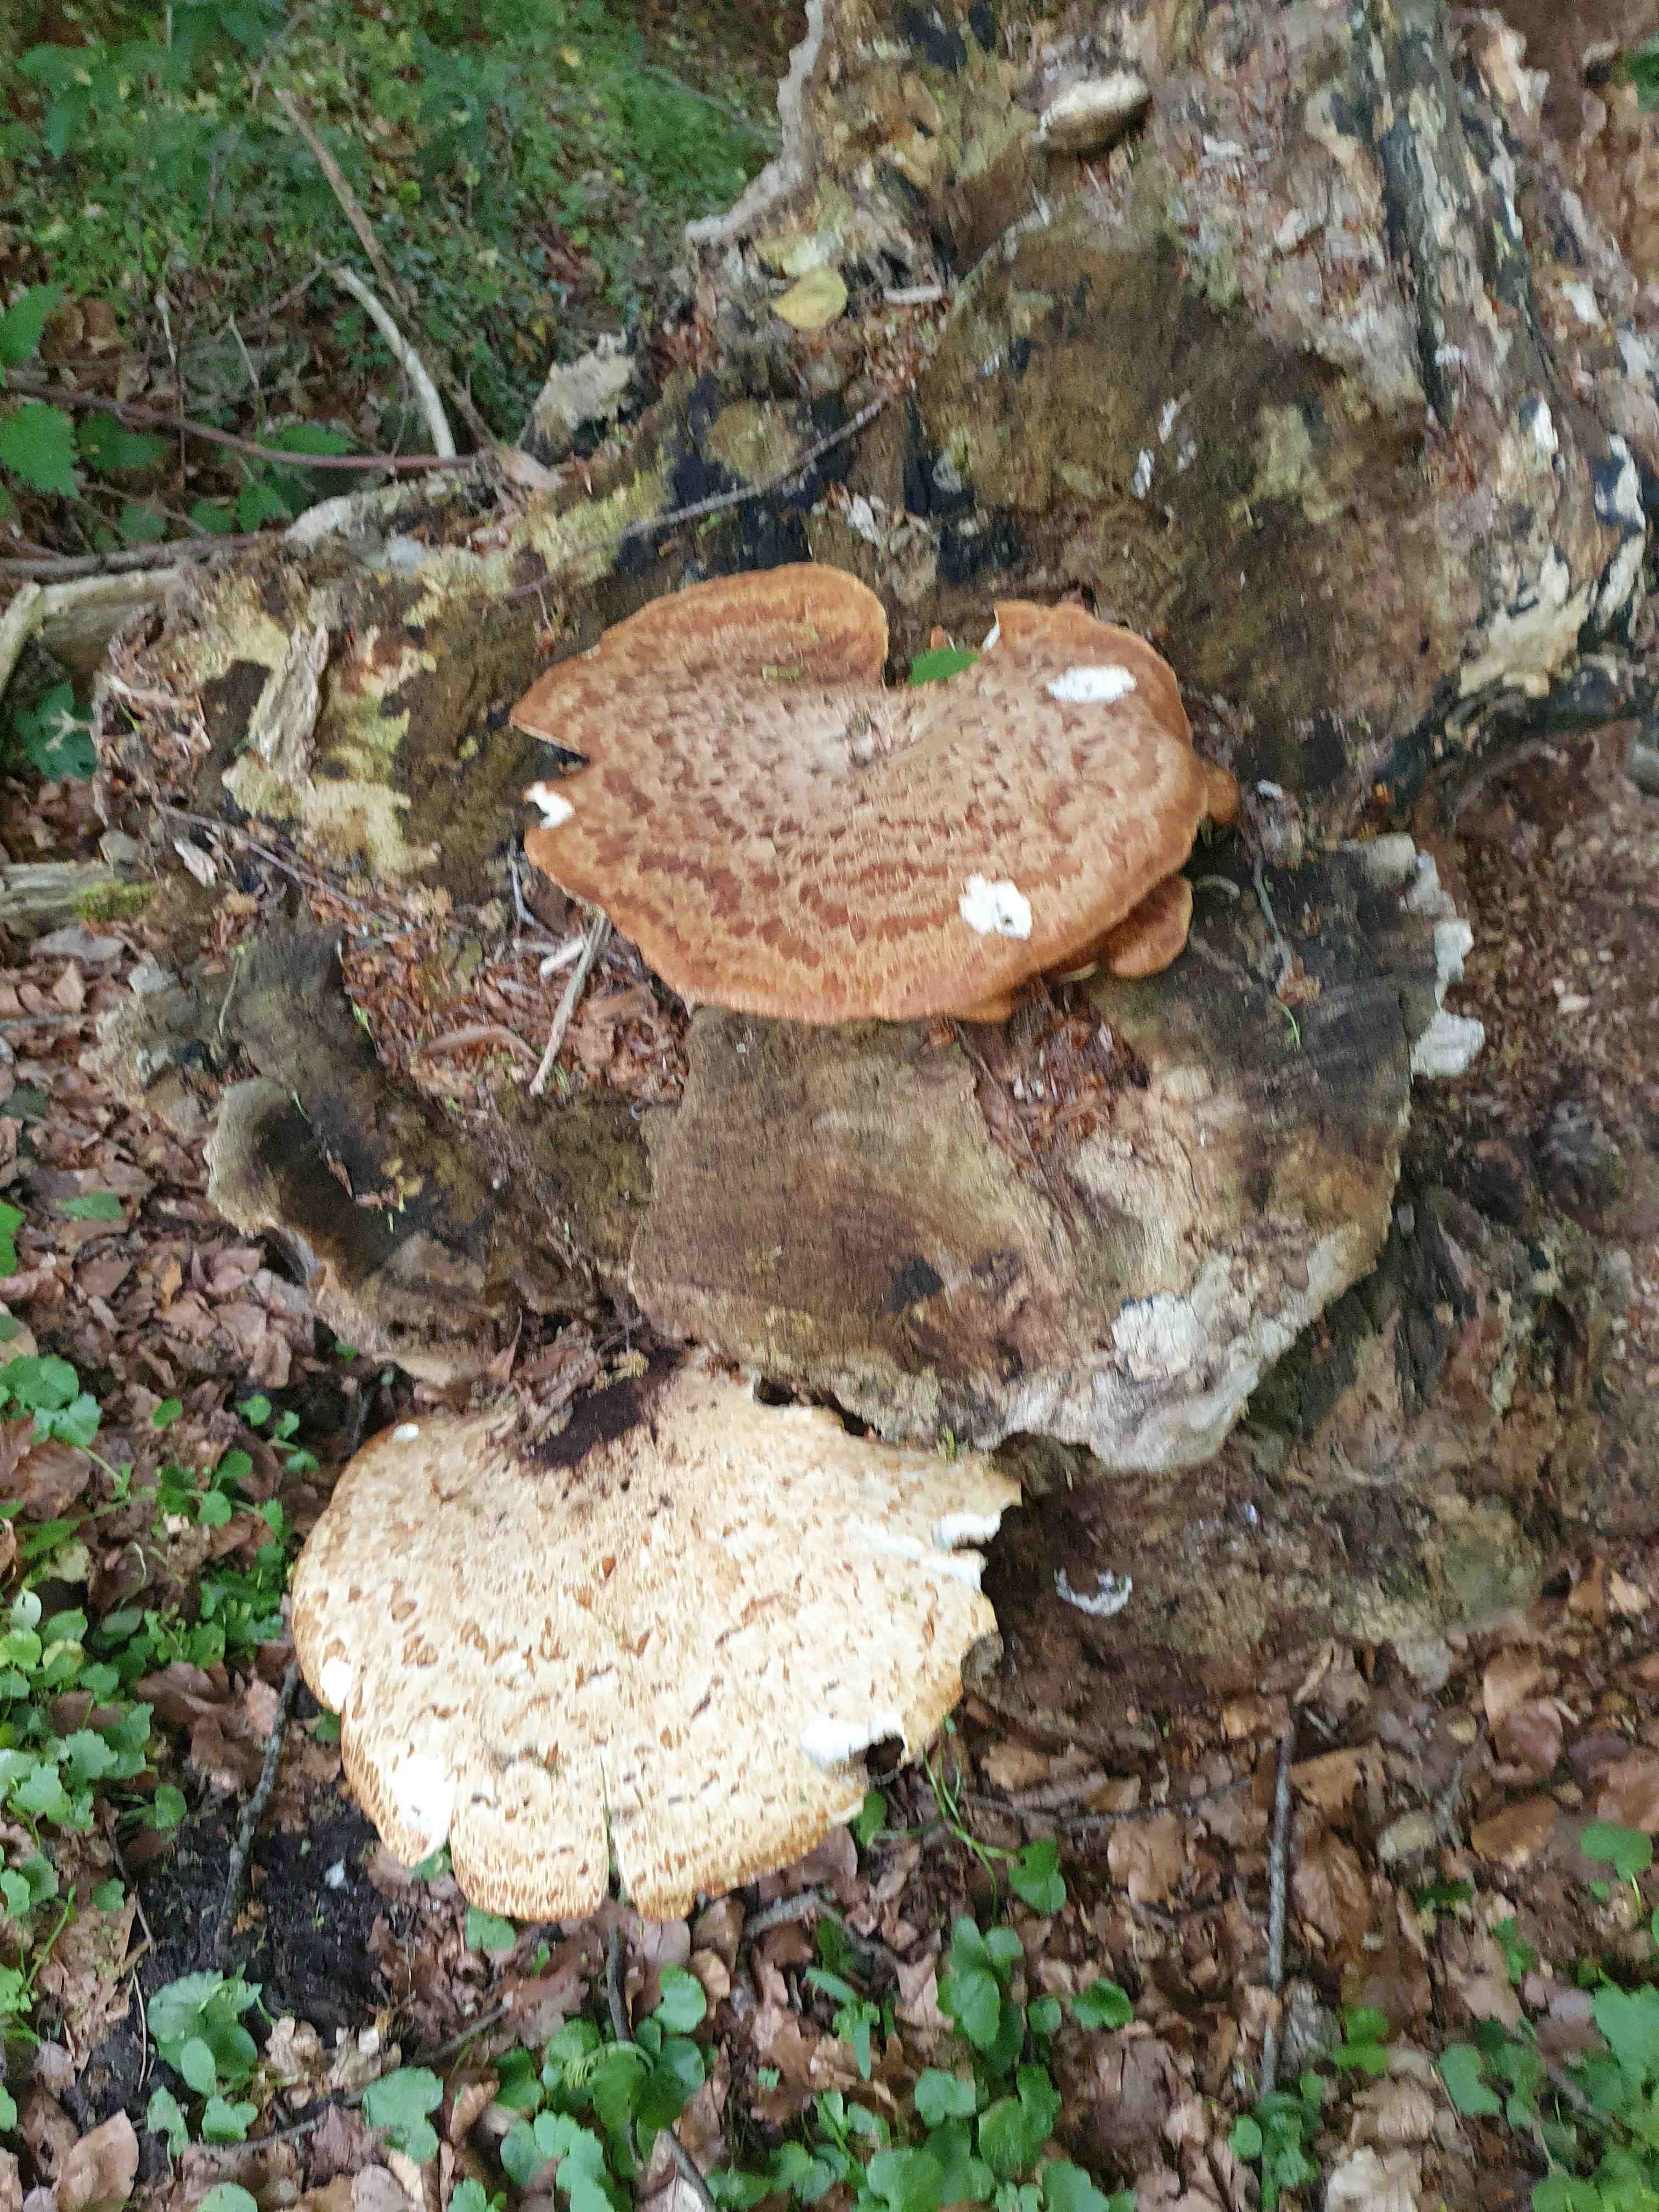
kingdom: Fungi
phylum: Basidiomycota
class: Agaricomycetes
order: Polyporales
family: Polyporaceae
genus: Cerioporus
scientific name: Cerioporus squamosus
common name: skællet stilkporesvamp
